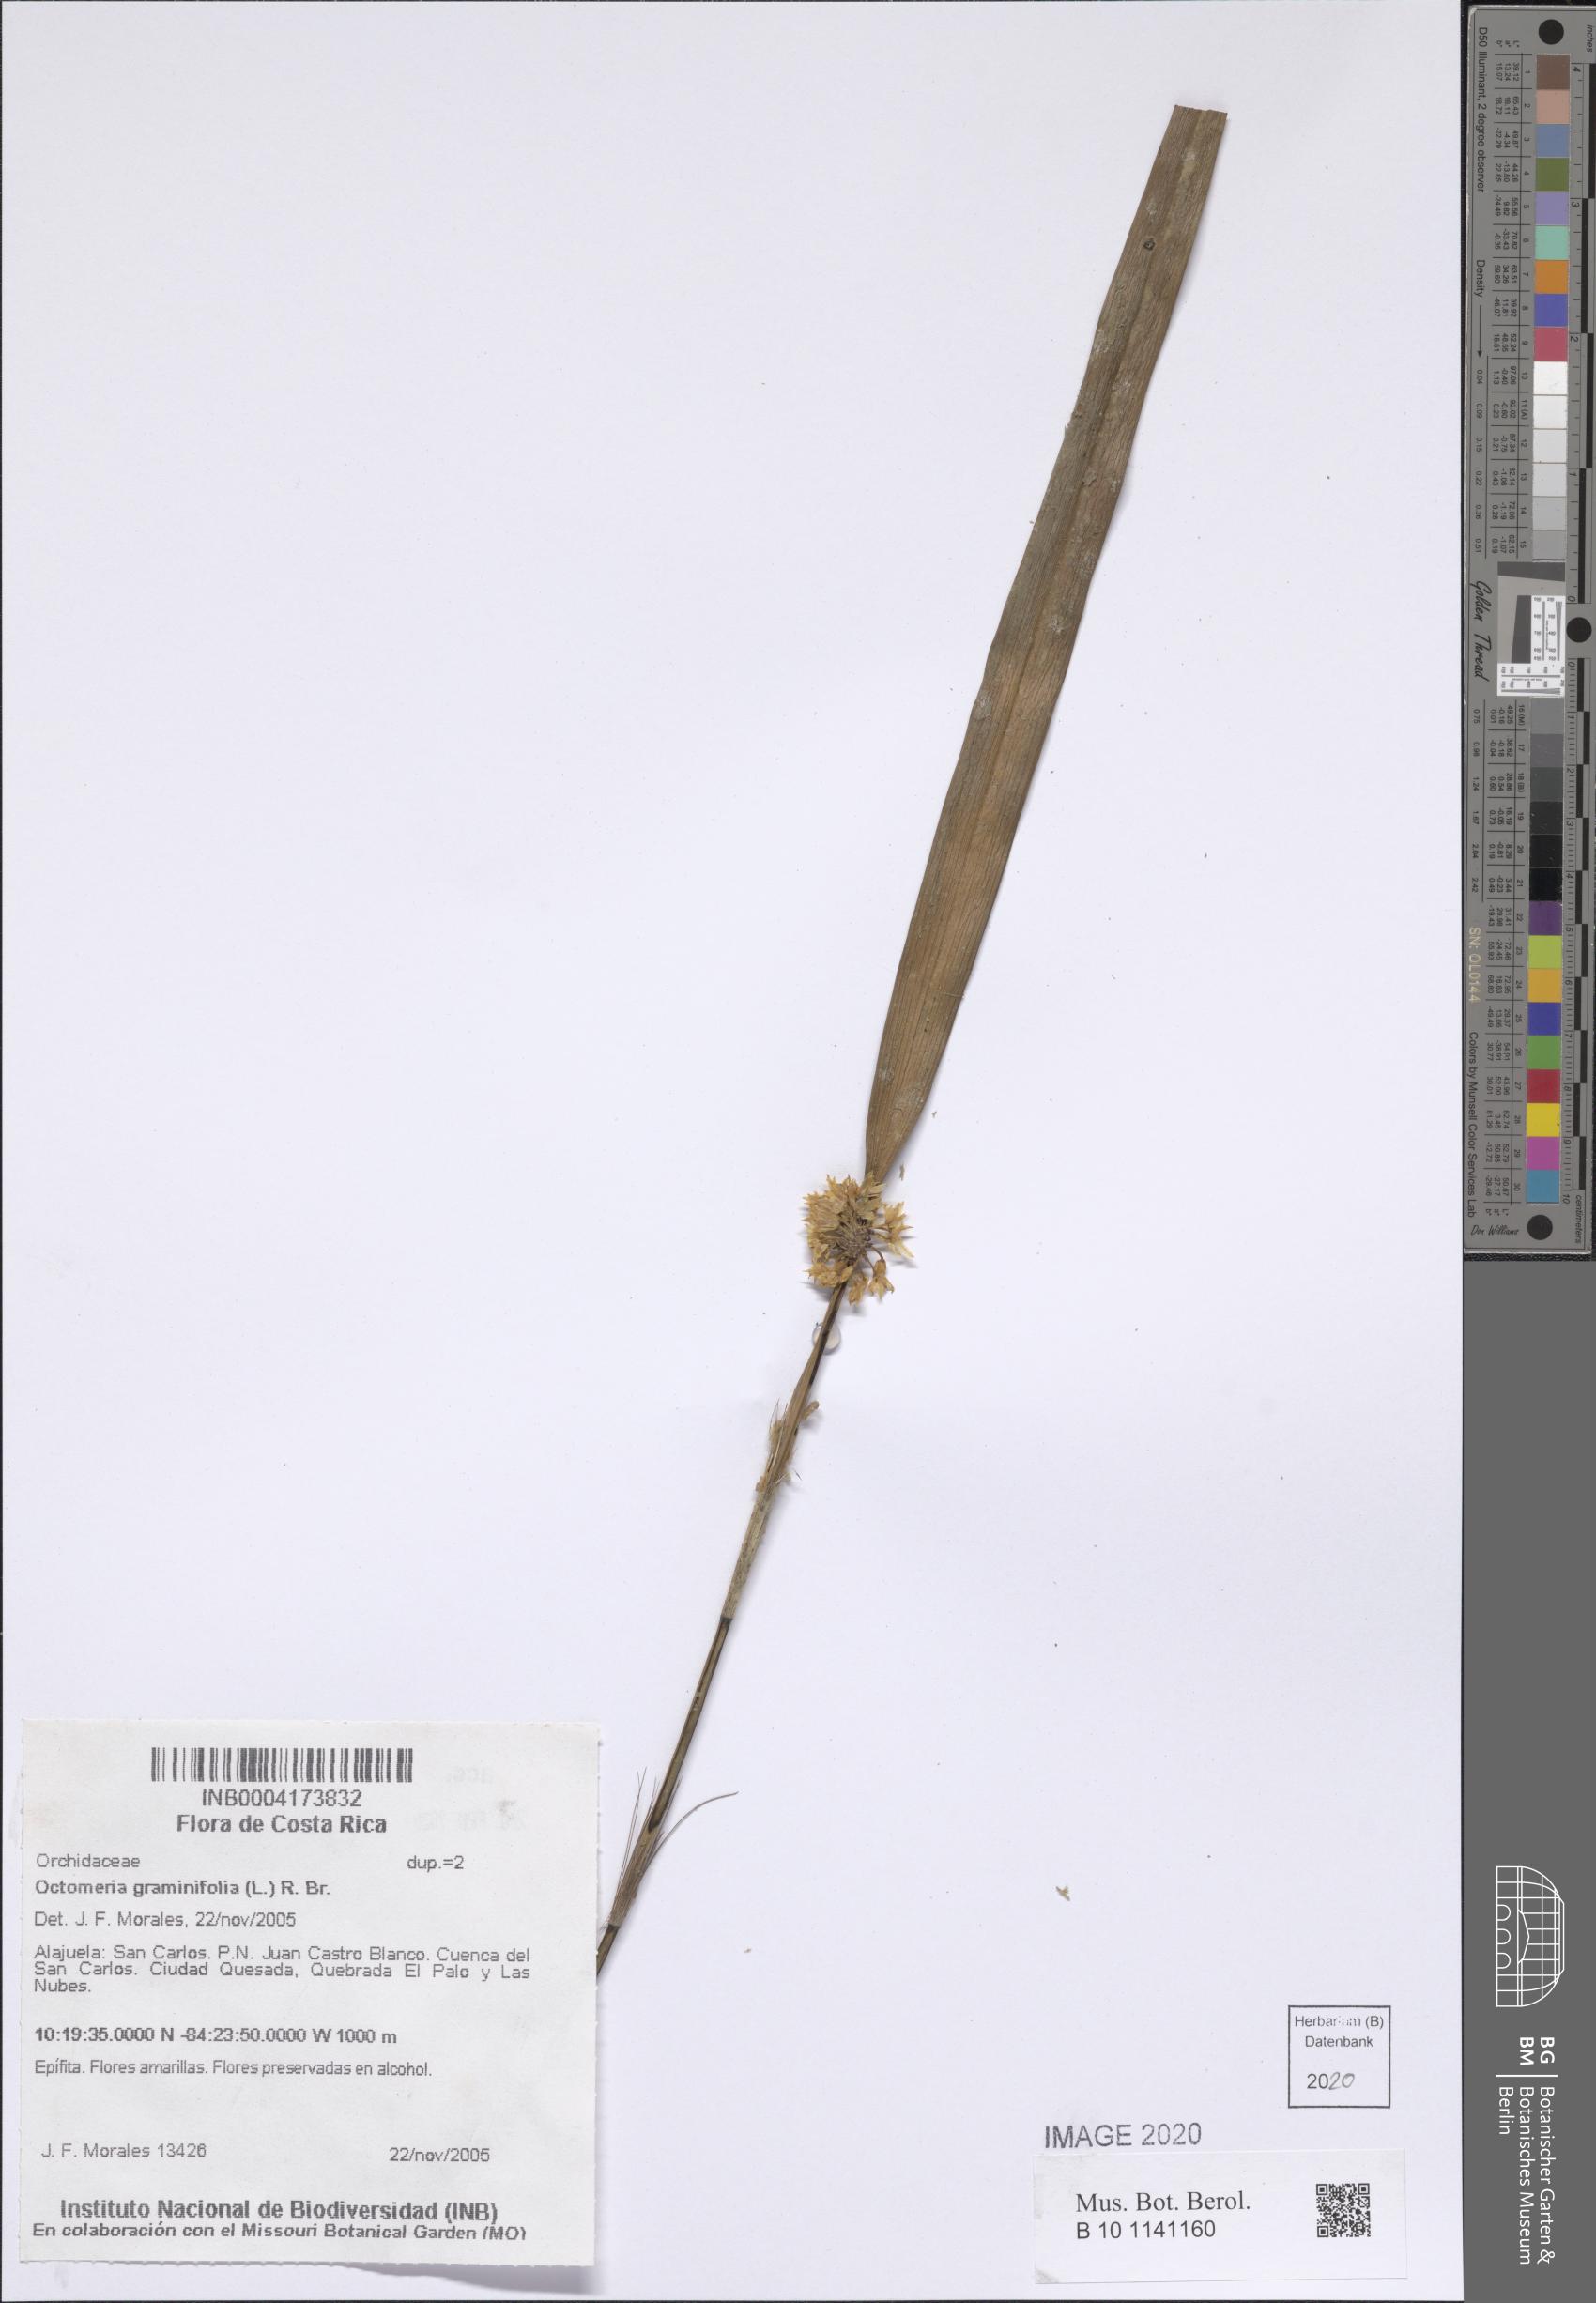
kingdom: Plantae
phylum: Tracheophyta
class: Liliopsida
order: Asparagales
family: Orchidaceae
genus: Octomeria
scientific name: Octomeria graminifolia
